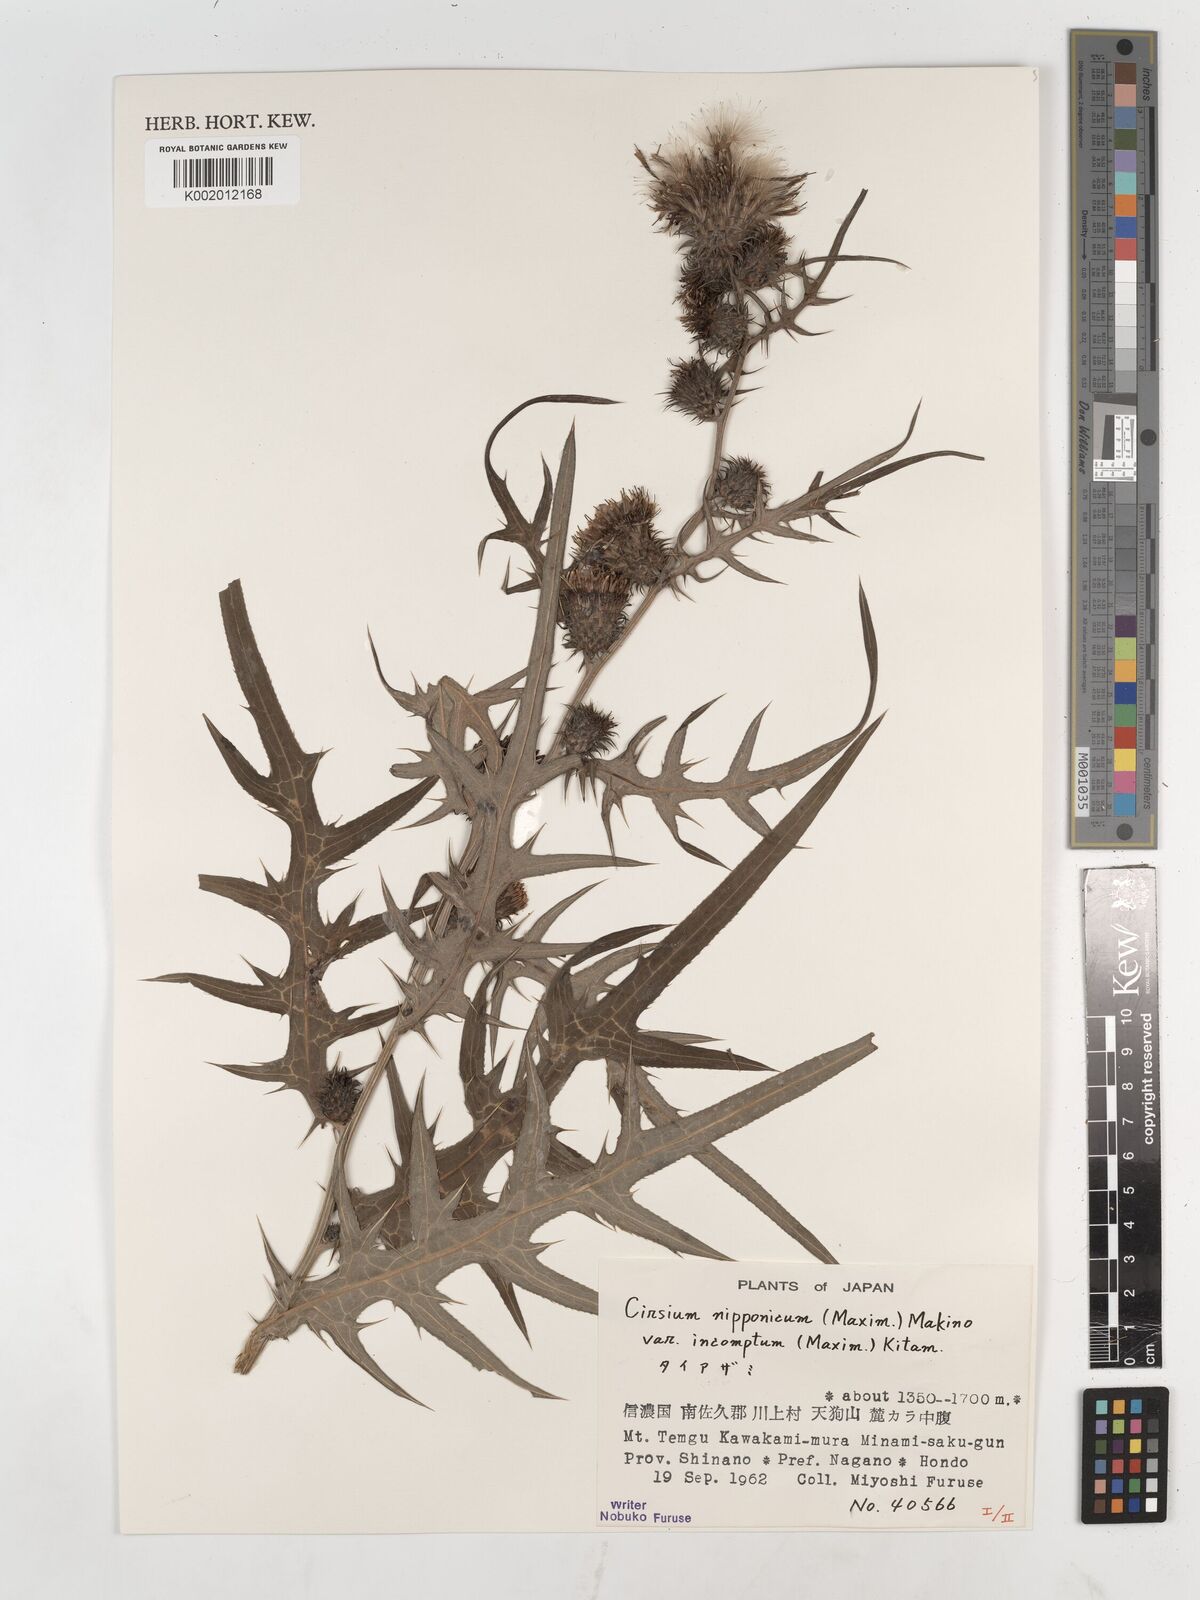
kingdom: Plantae
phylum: Tracheophyta
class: Magnoliopsida
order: Asterales
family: Asteraceae
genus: Cirsium
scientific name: Cirsium nipponicum
